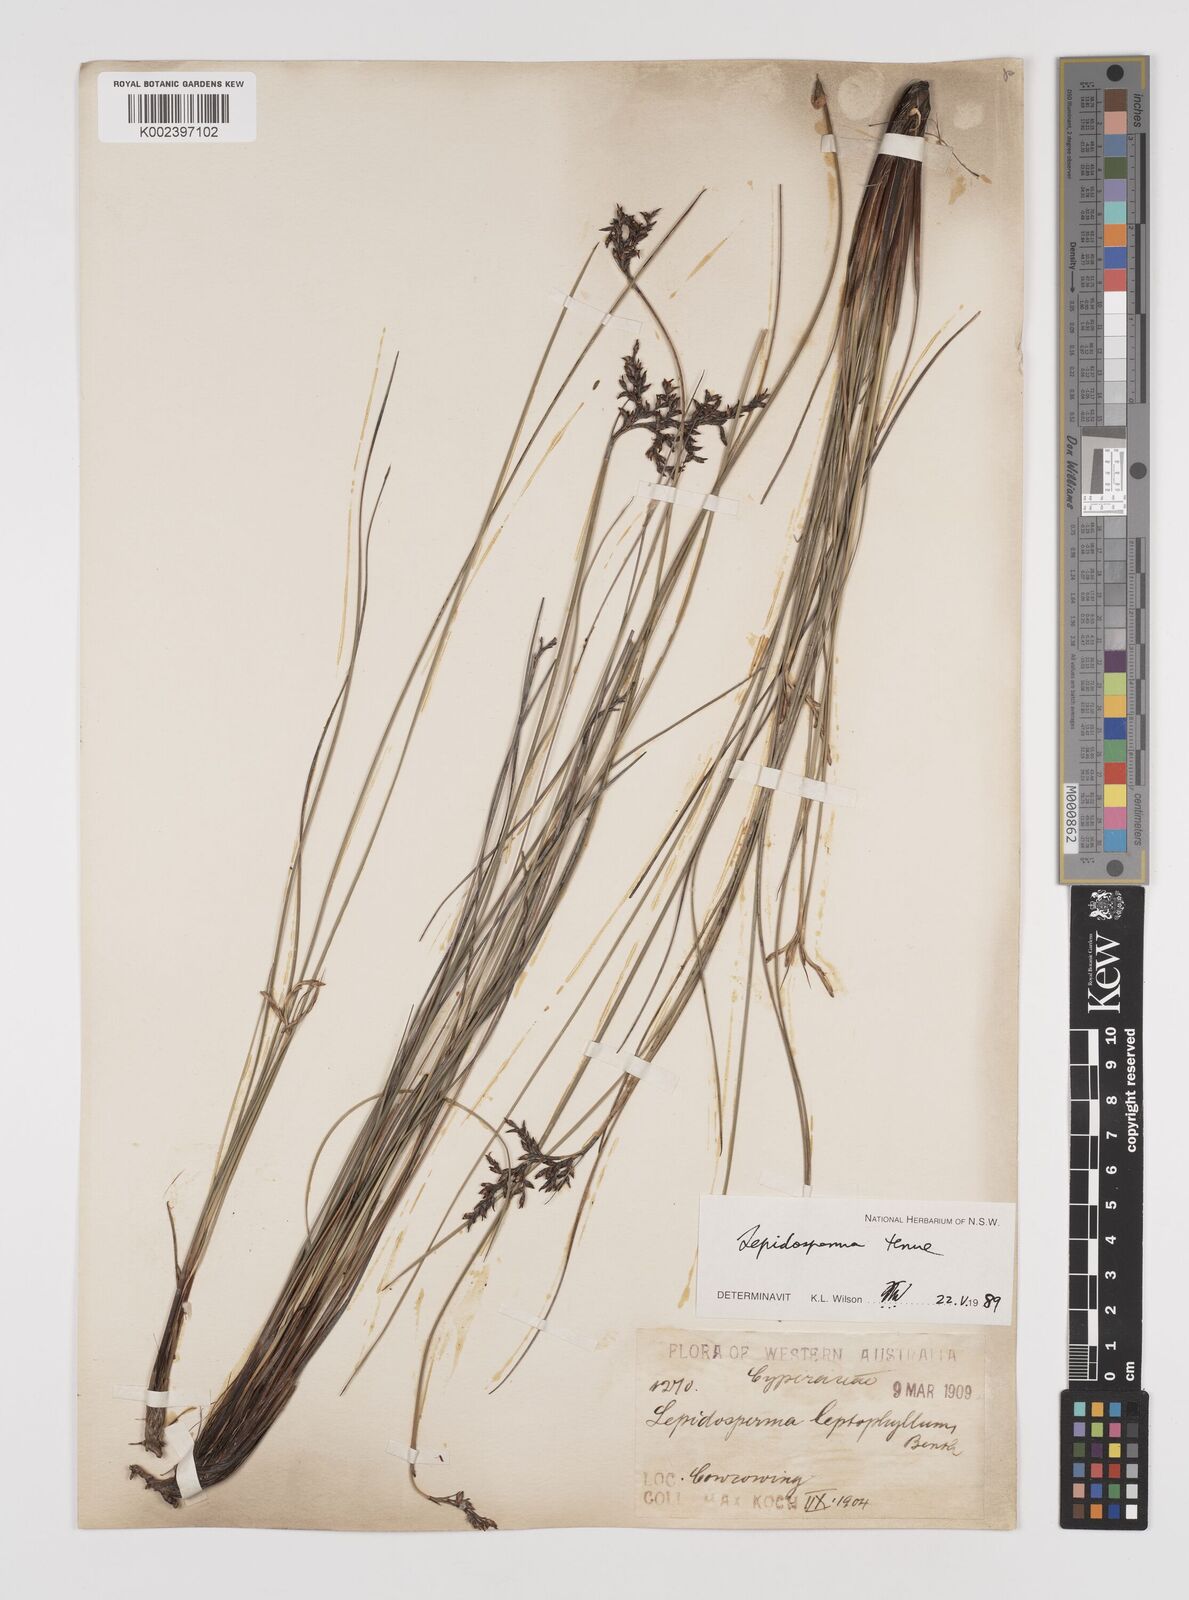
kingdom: Plantae
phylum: Tracheophyta
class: Liliopsida
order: Poales
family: Cyperaceae
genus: Lepidosperma
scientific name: Lepidosperma tenue
